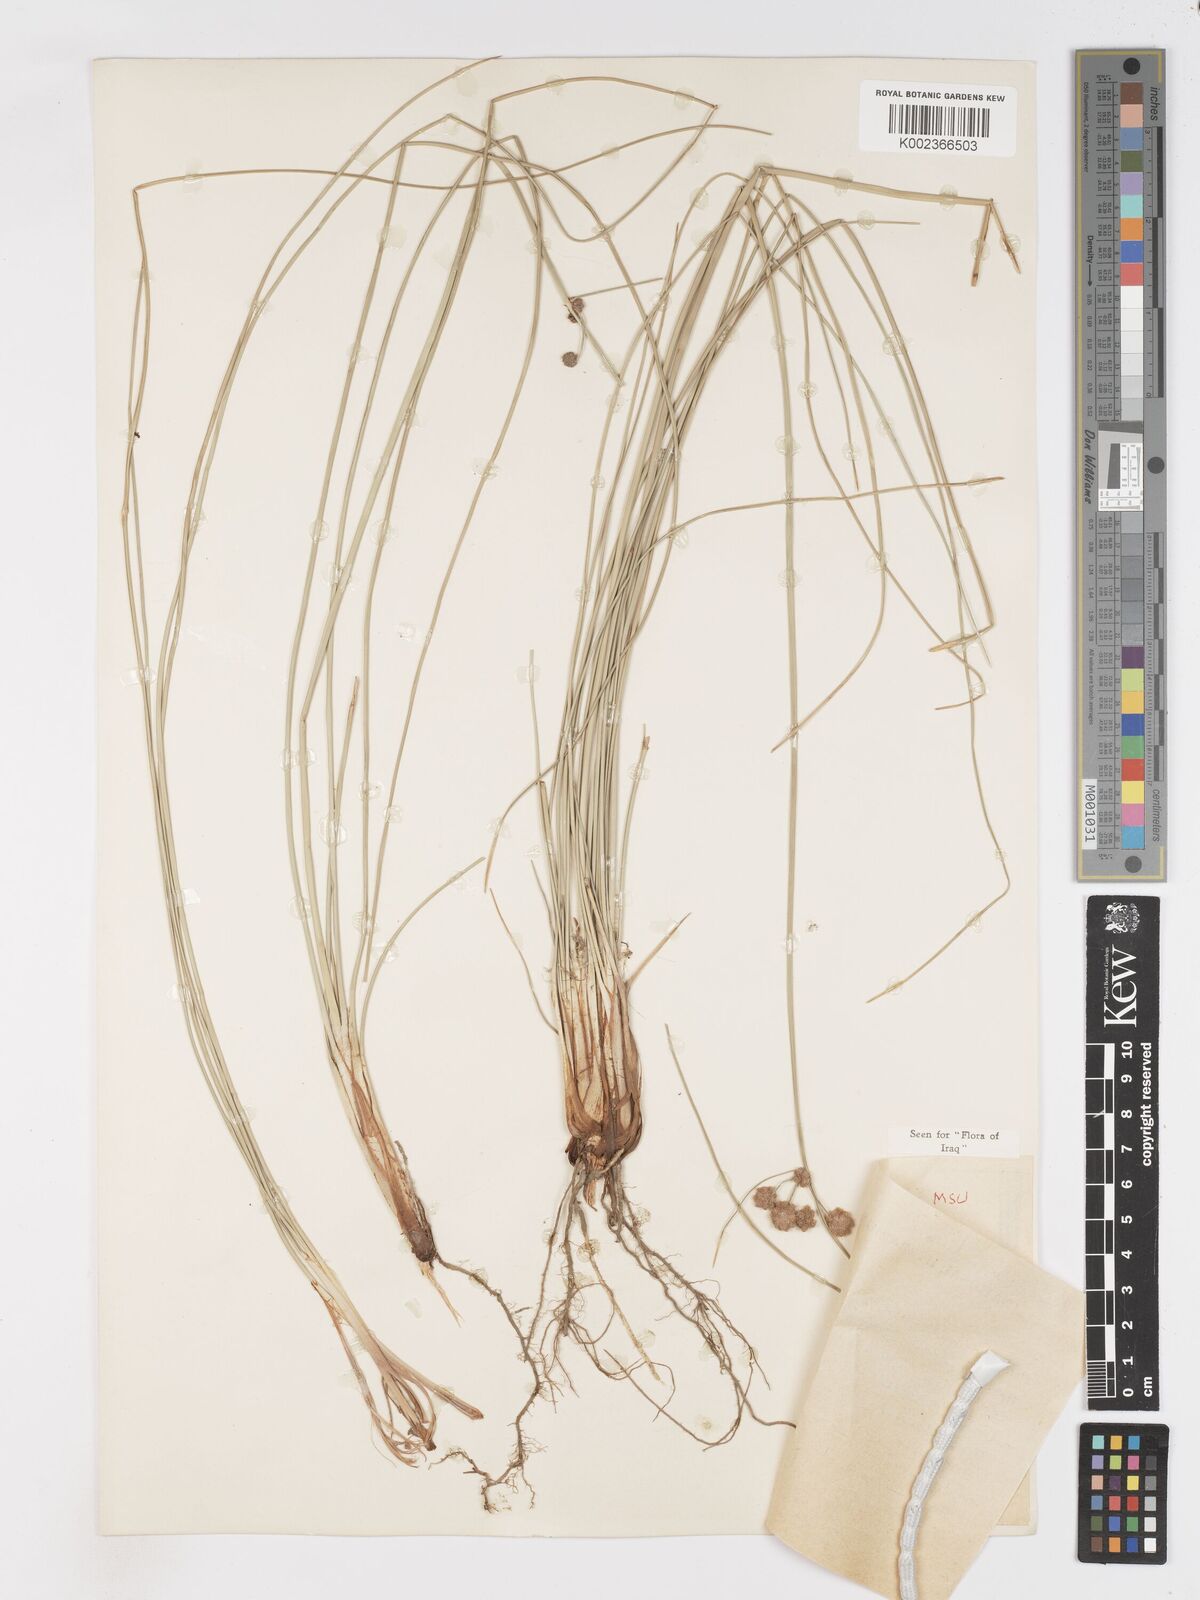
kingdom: Plantae
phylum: Tracheophyta
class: Liliopsida
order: Poales
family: Cyperaceae
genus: Scirpoides
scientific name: Scirpoides holoschoenus
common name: Round-headed club-rush
